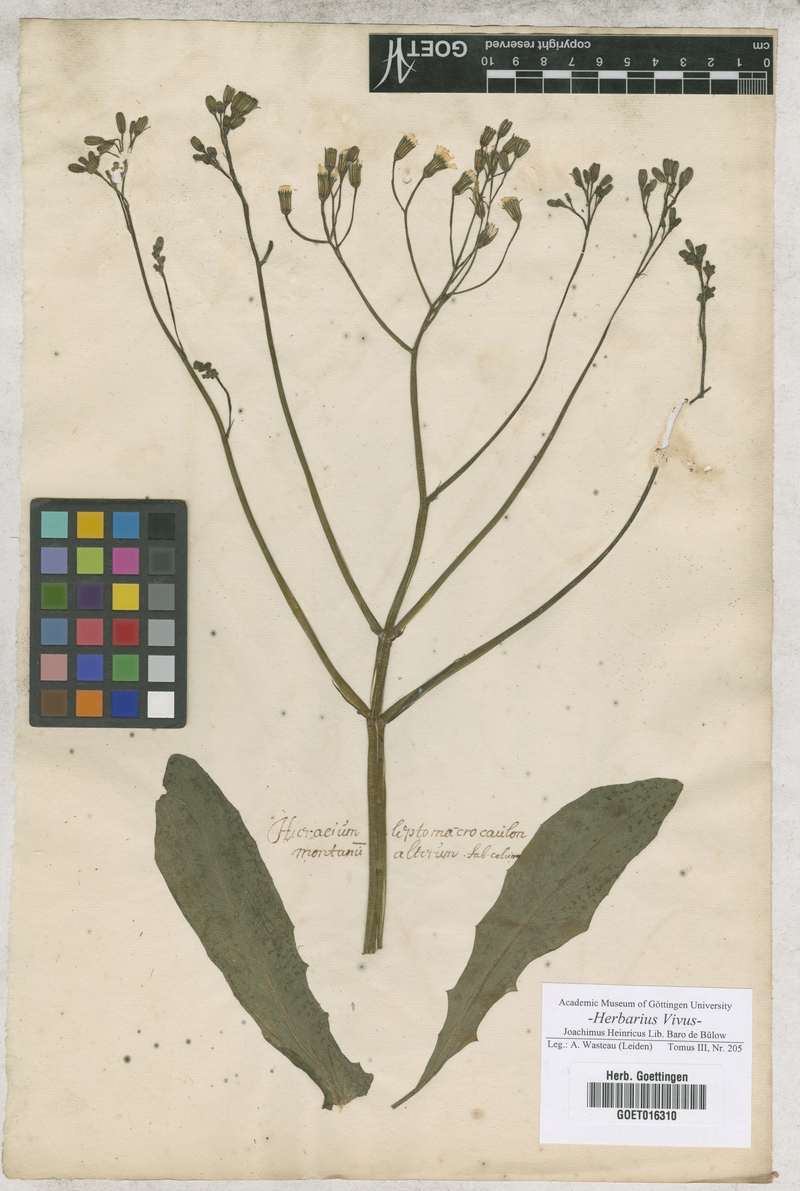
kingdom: Plantae
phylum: Tracheophyta
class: Magnoliopsida
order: Asterales
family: Asteraceae
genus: Hieracium
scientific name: Hieracium
